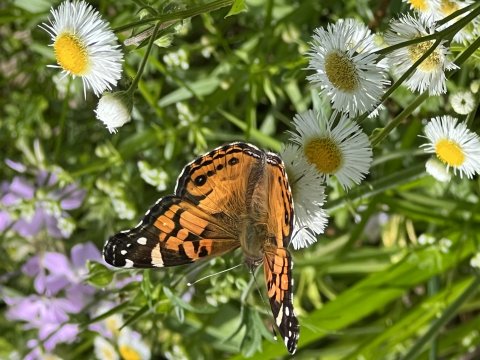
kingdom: Animalia
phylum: Arthropoda
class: Insecta
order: Lepidoptera
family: Nymphalidae
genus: Vanessa
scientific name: Vanessa virginiensis
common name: American Lady
